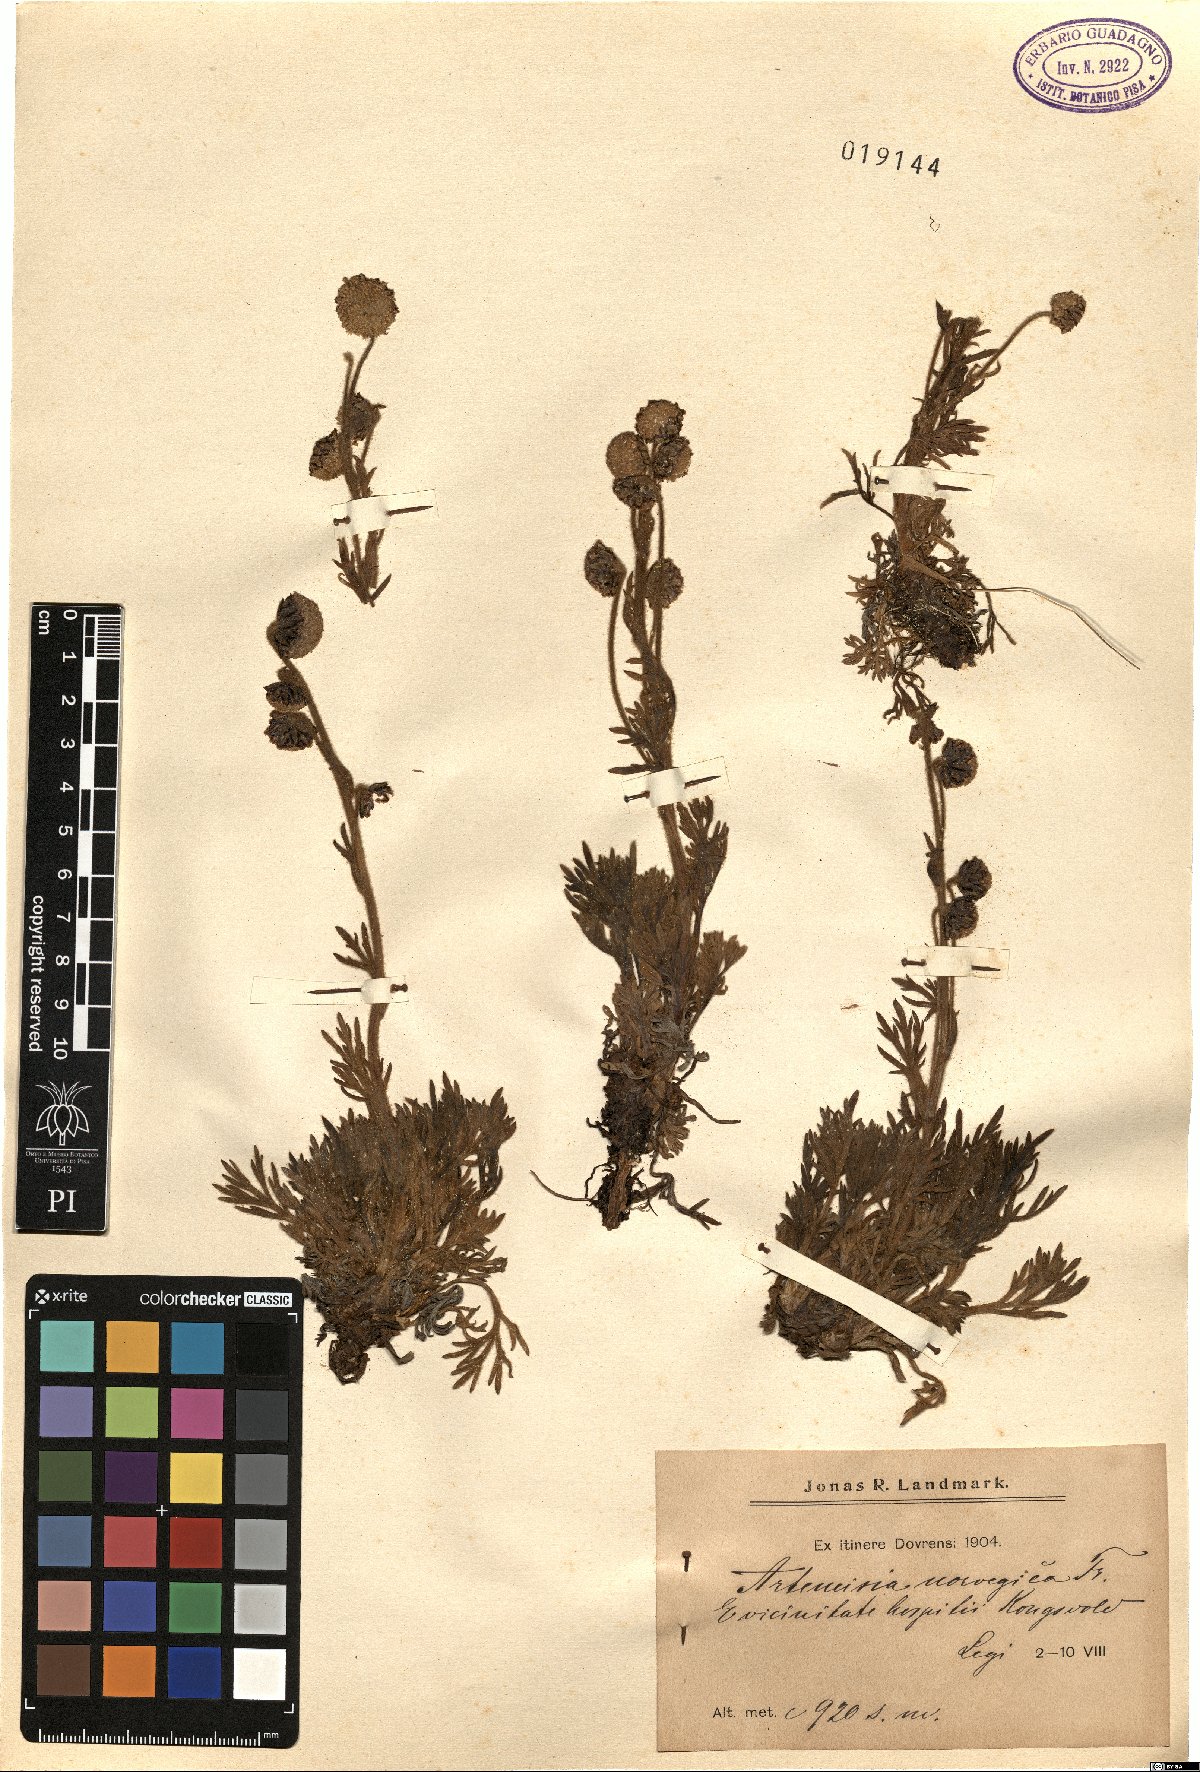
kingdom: Plantae
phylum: Tracheophyta
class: Magnoliopsida
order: Asterales
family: Asteraceae
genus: Artemisia
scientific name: Artemisia norvegica
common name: Norwegian mugwort
